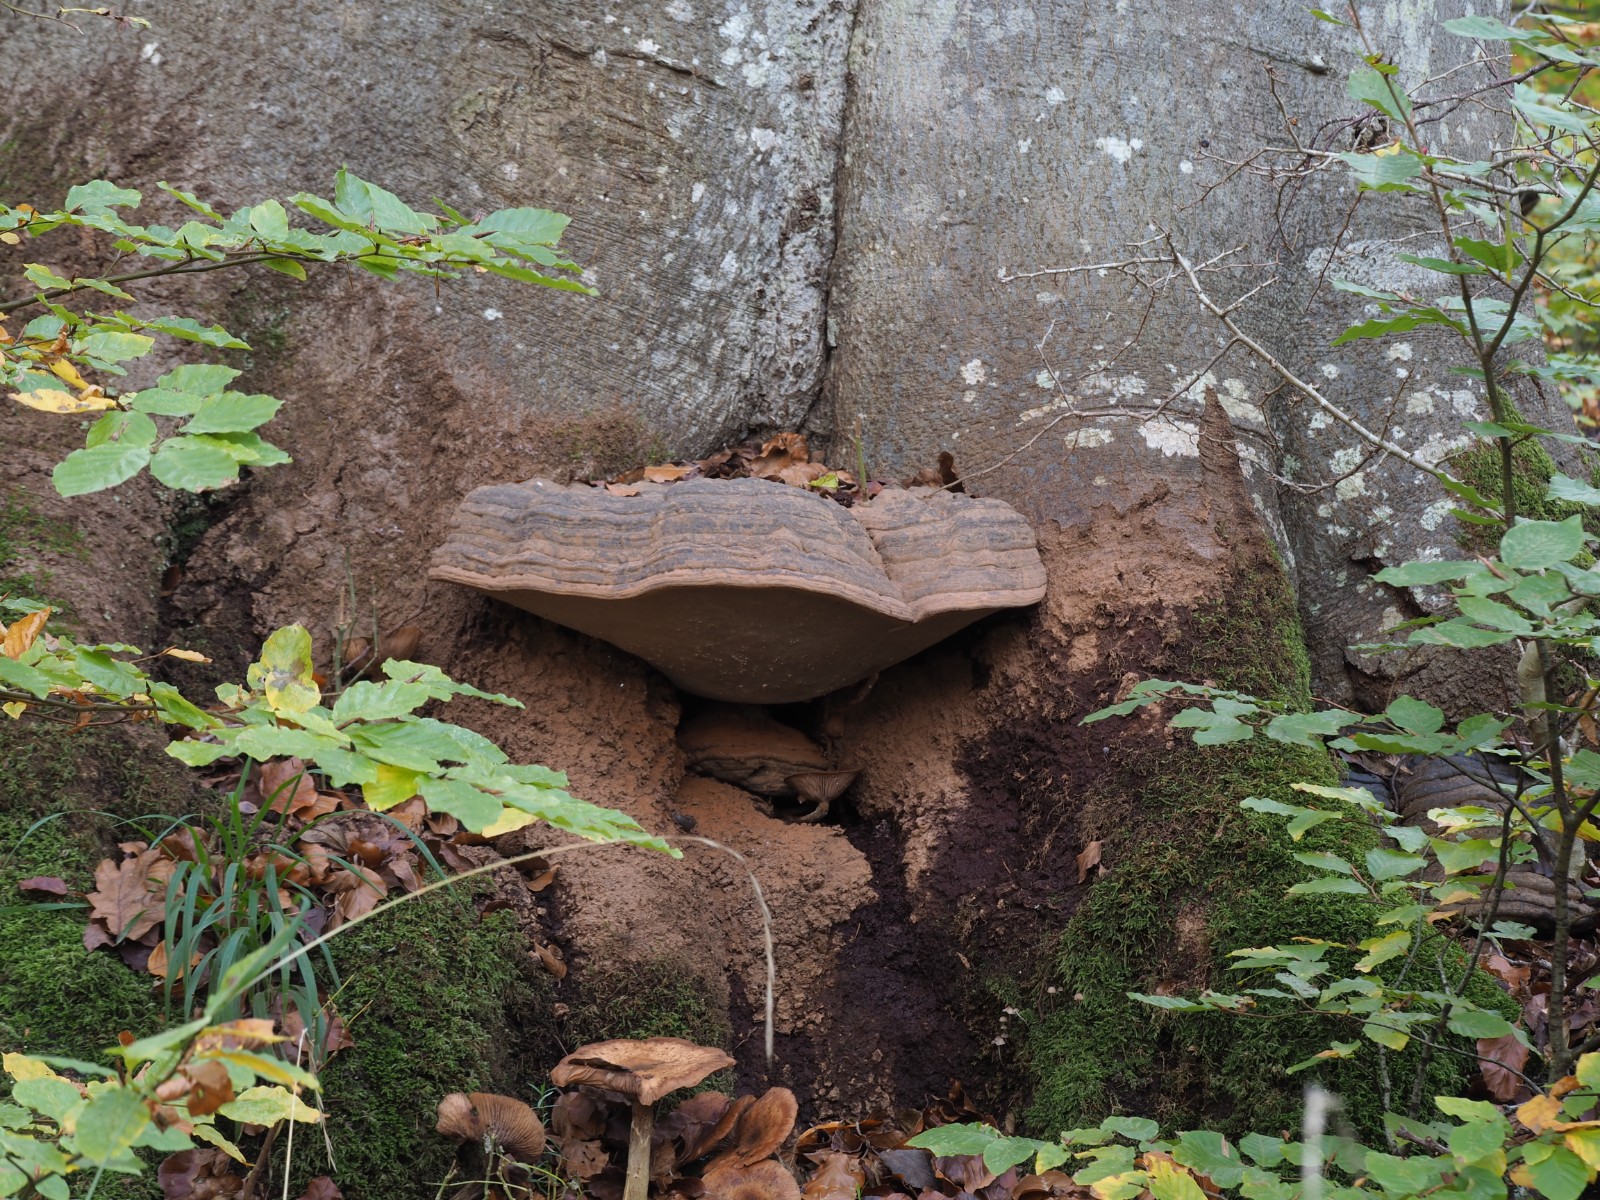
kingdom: Fungi
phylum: Basidiomycota
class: Agaricomycetes
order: Polyporales
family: Polyporaceae
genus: Ganoderma
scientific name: Ganoderma pfeifferi
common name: kobberrød lakporesvamp
